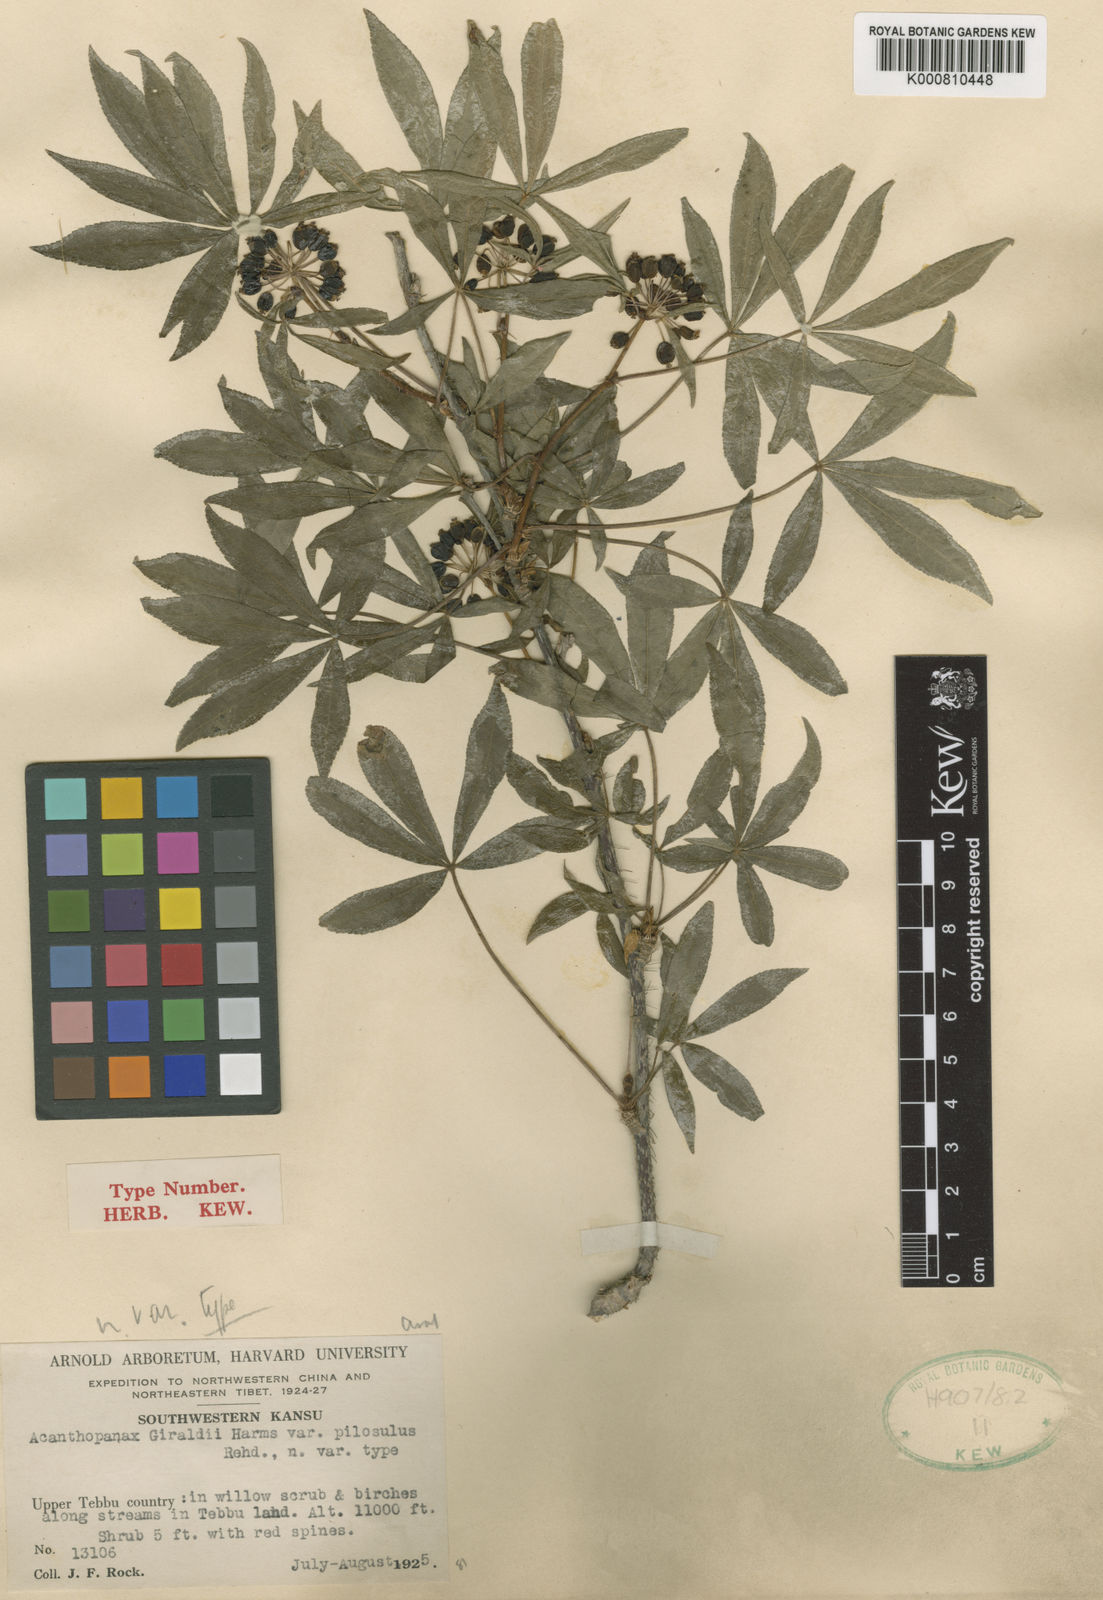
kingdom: Plantae
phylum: Tracheophyta
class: Magnoliopsida
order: Apiales
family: Araliaceae
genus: Acanthopanax
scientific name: Acanthopanax
